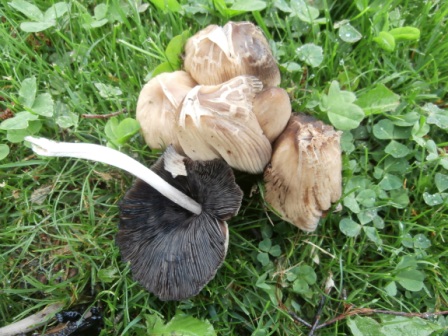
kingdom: Fungi
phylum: Basidiomycota
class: Agaricomycetes
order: Agaricales
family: Psathyrellaceae
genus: Coprinellus
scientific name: Coprinellus micaceus
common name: glimmer-blækhat
